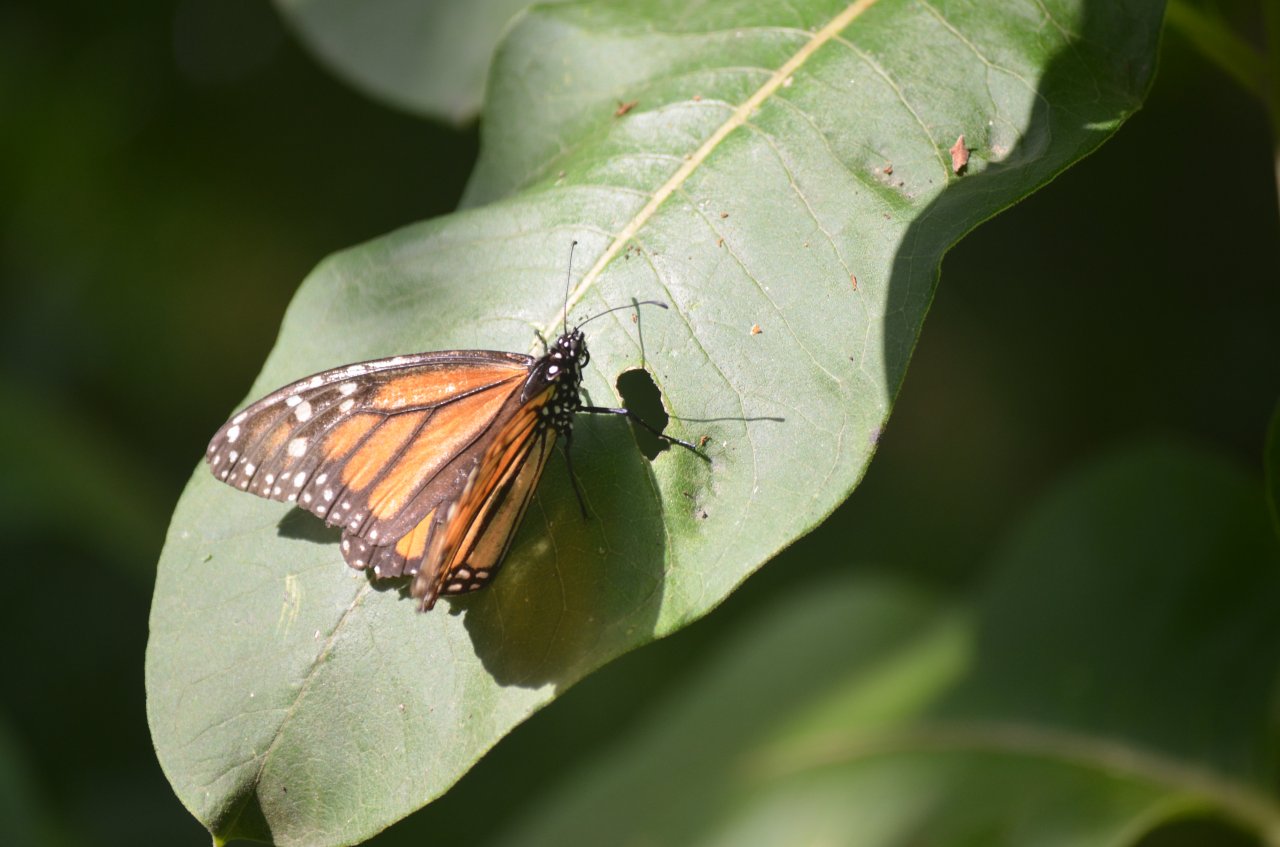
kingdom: Animalia
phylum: Arthropoda
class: Insecta
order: Lepidoptera
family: Nymphalidae
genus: Danaus
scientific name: Danaus plexippus
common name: Monarch
